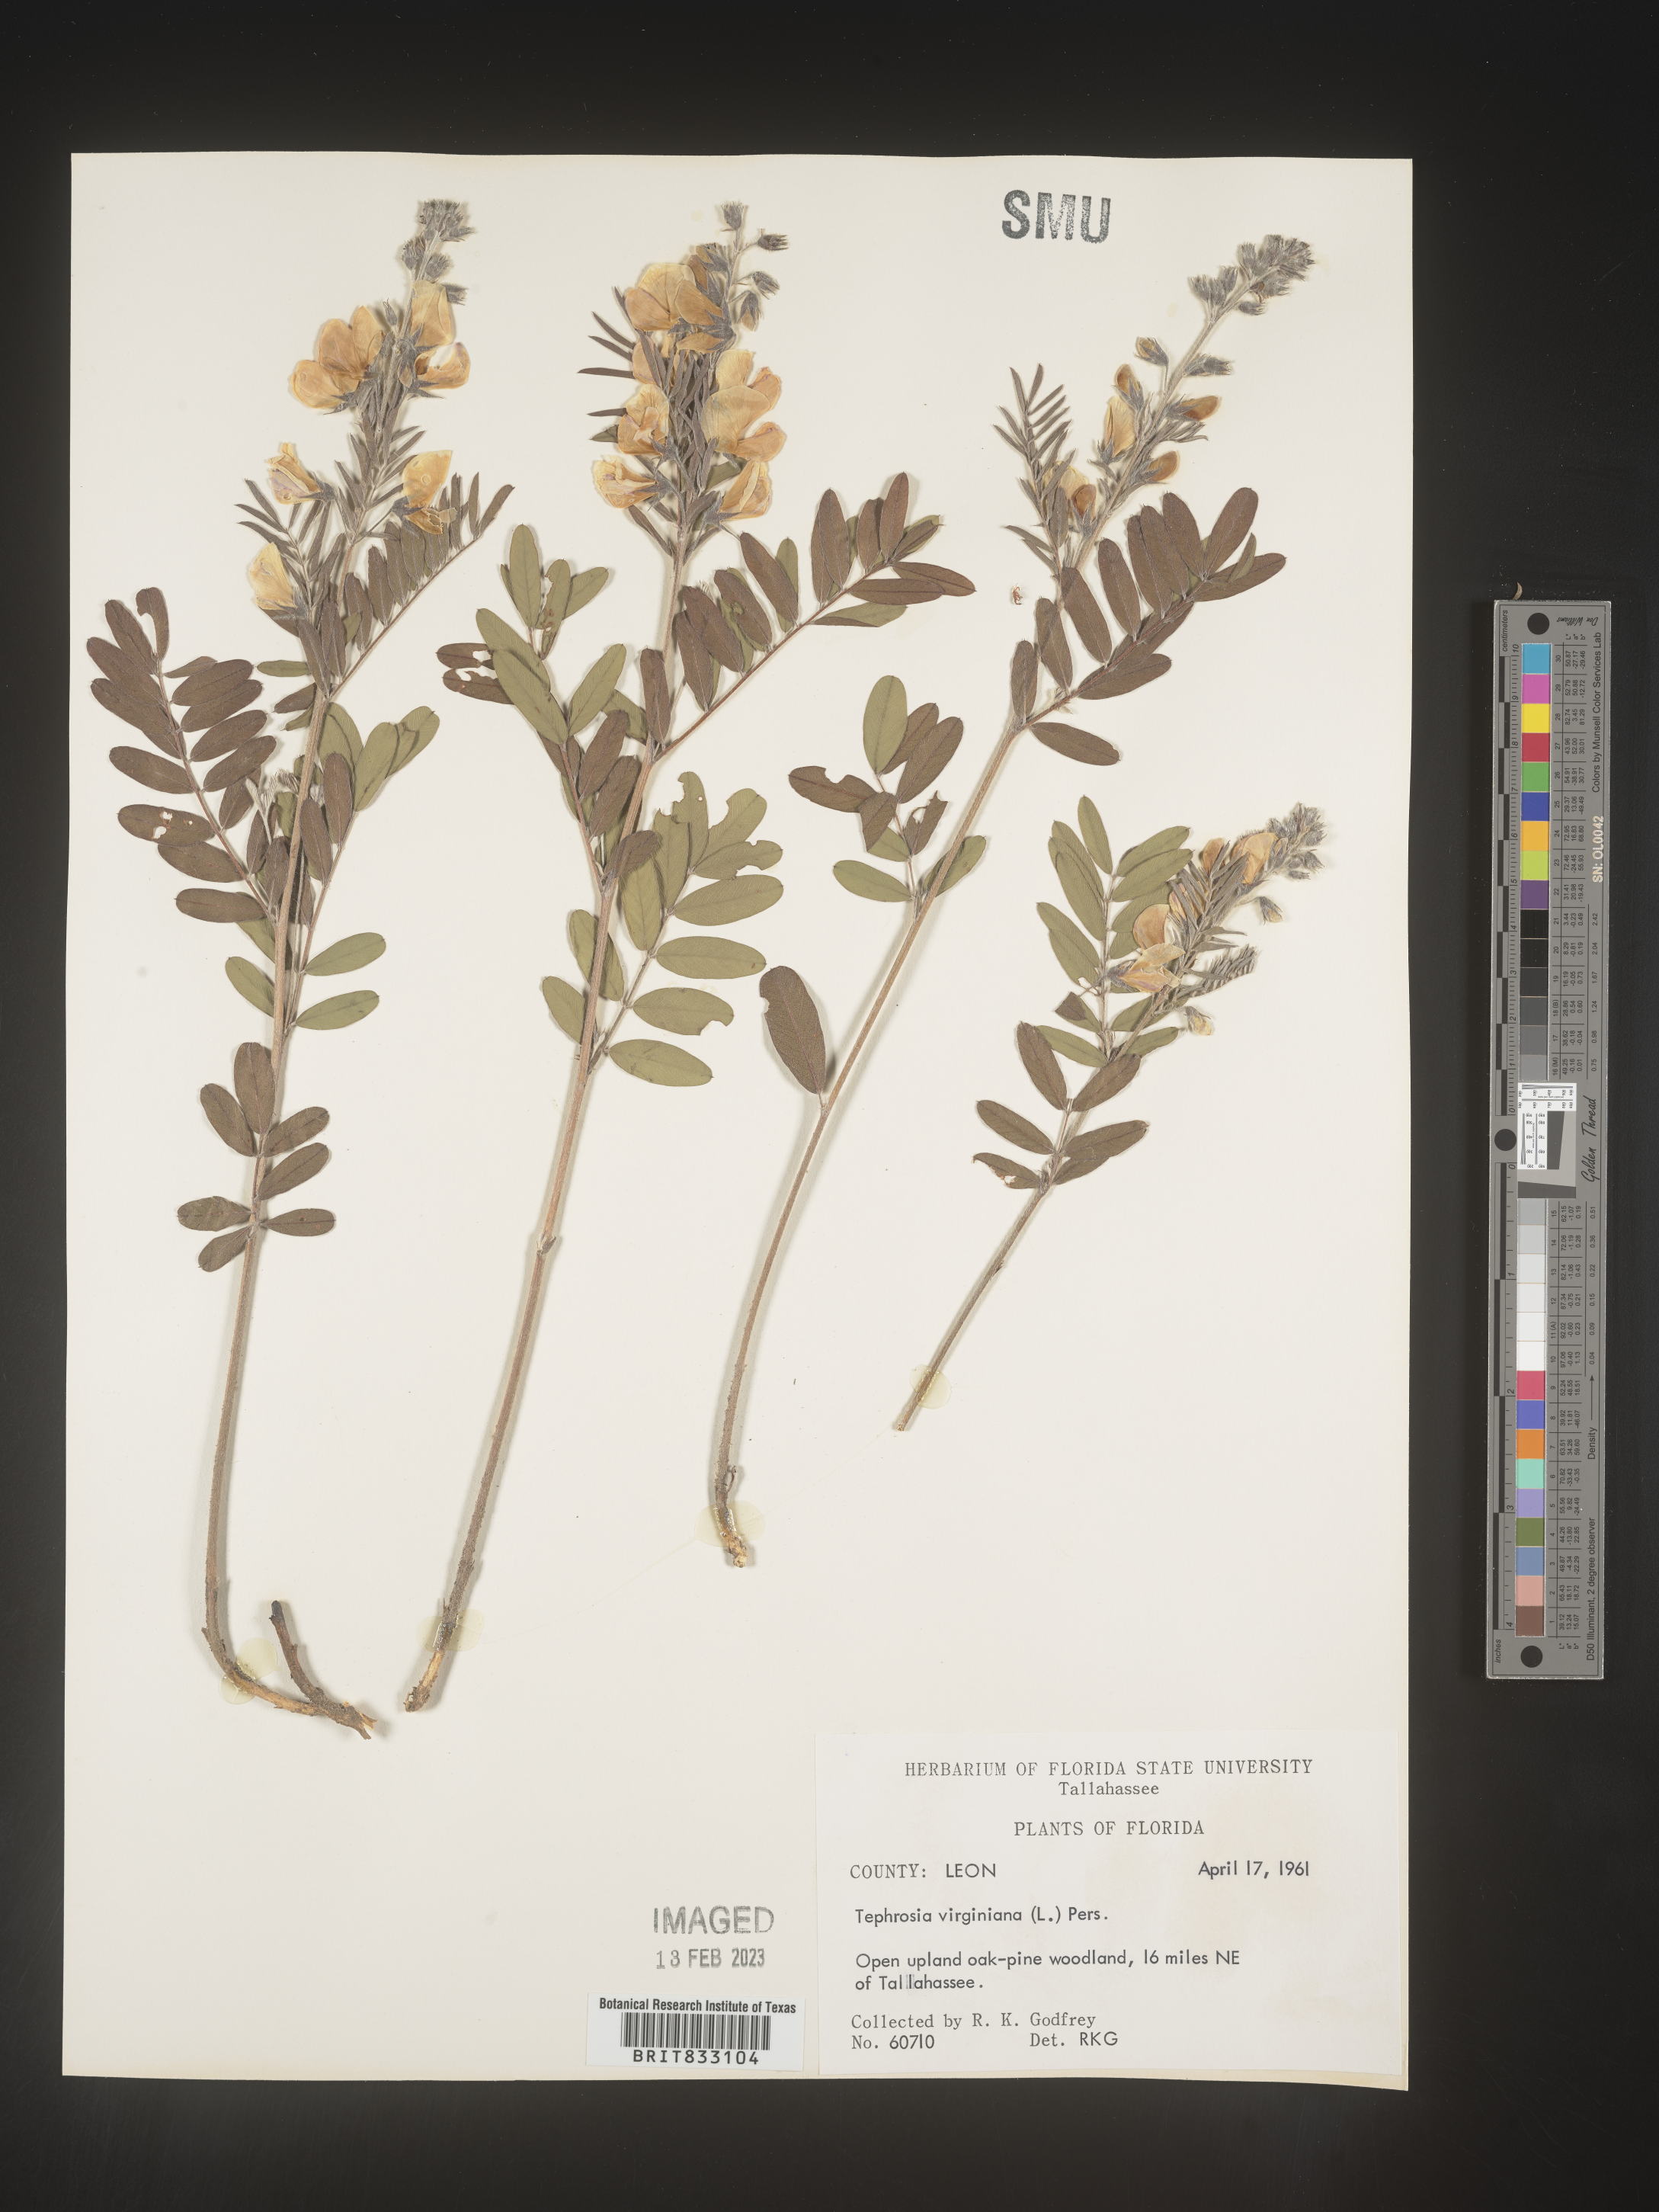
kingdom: Plantae
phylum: Tracheophyta
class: Magnoliopsida
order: Fabales
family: Fabaceae
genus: Tephrosia
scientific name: Tephrosia virginiana
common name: Rabbit-pea
